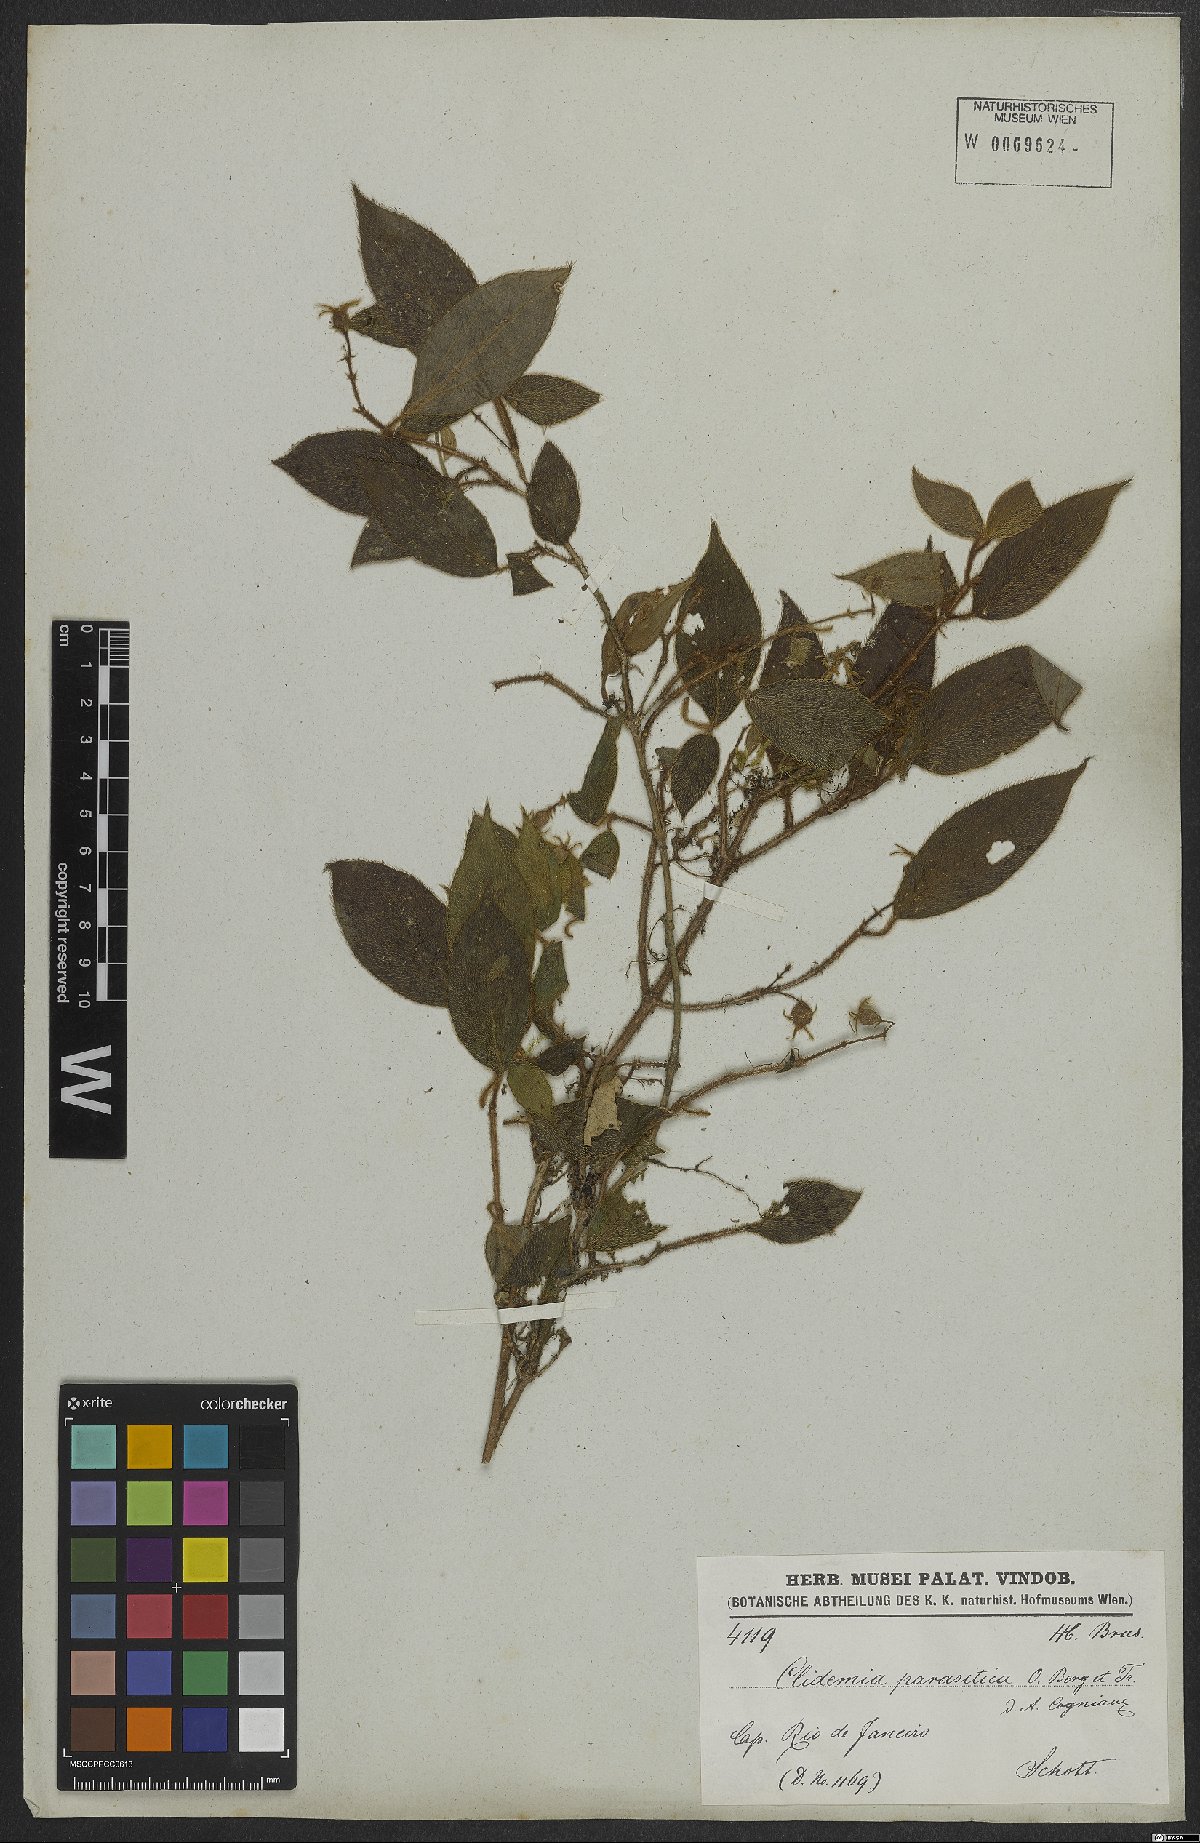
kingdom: Plantae
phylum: Tracheophyta
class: Magnoliopsida
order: Myrtales
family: Melastomataceae
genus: Miconia
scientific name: Miconia parasitica
